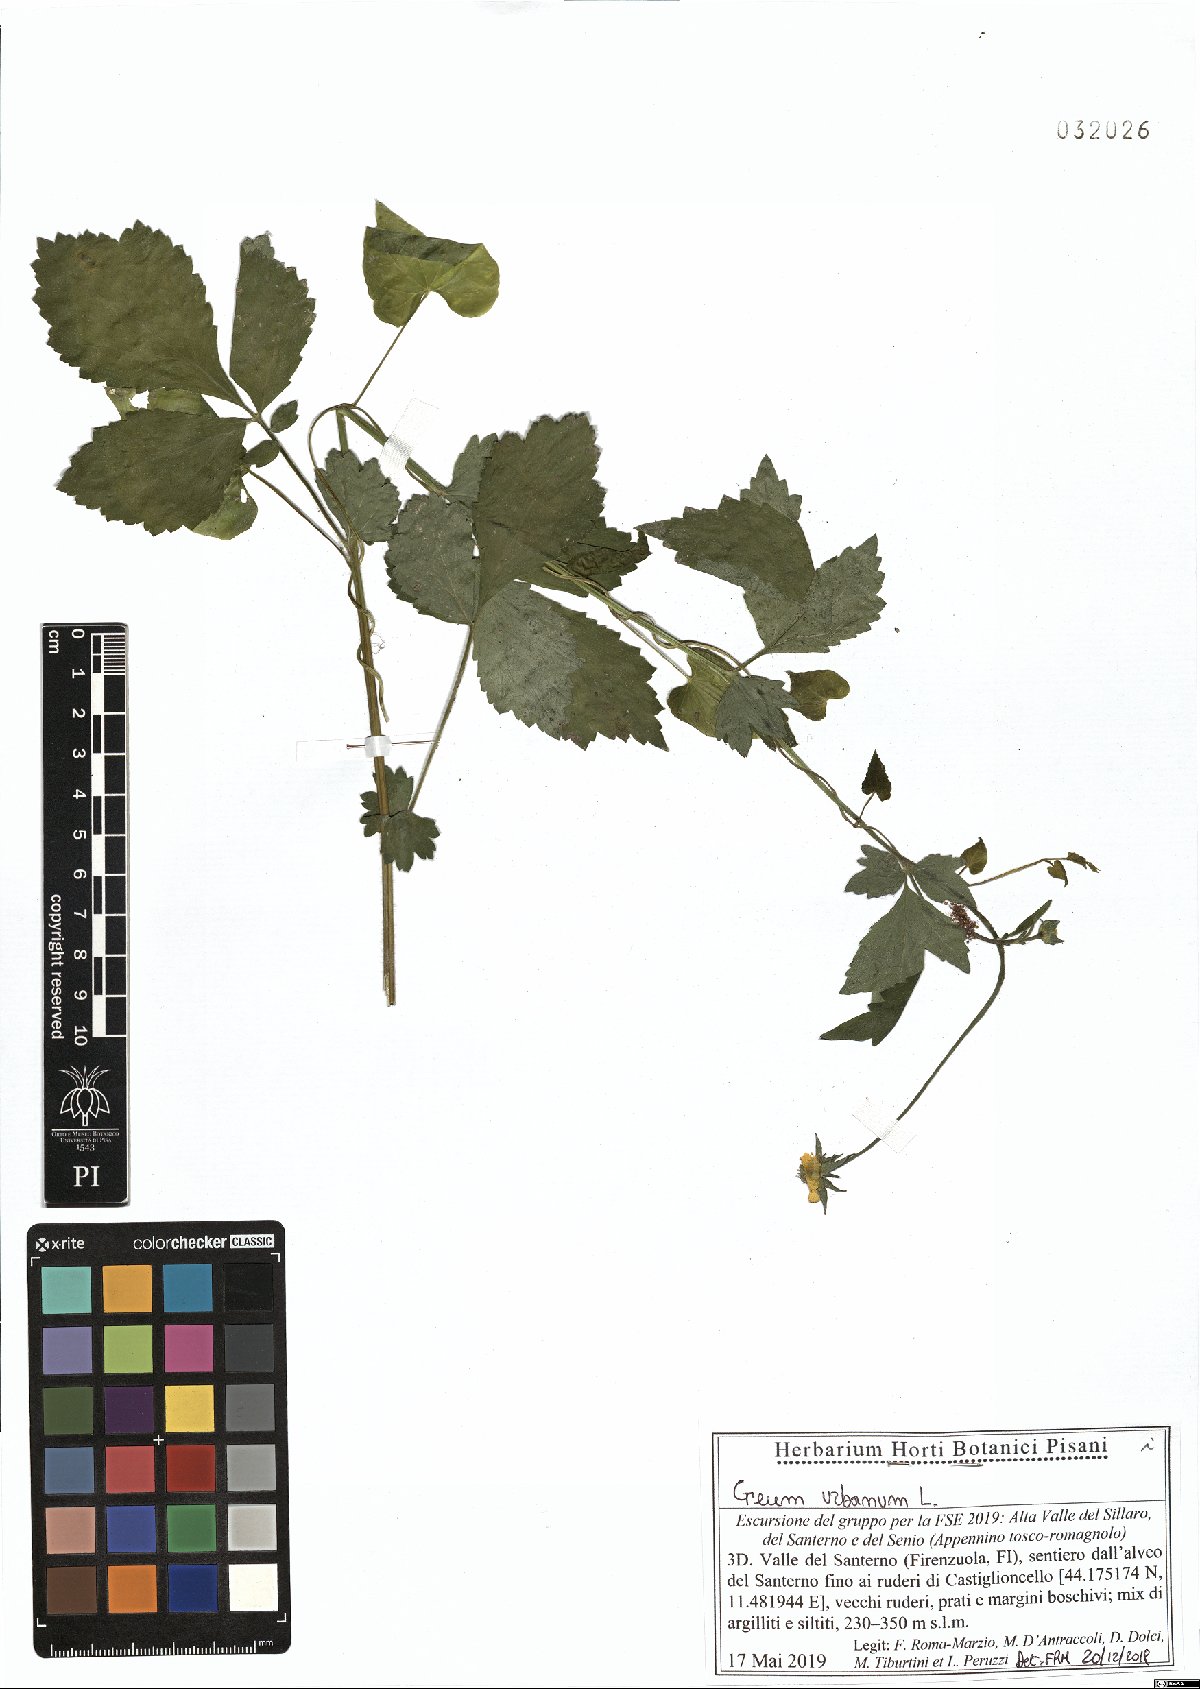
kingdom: Plantae
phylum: Tracheophyta
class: Magnoliopsida
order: Rosales
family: Rosaceae
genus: Geum
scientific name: Geum urbanum
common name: Wood avens
